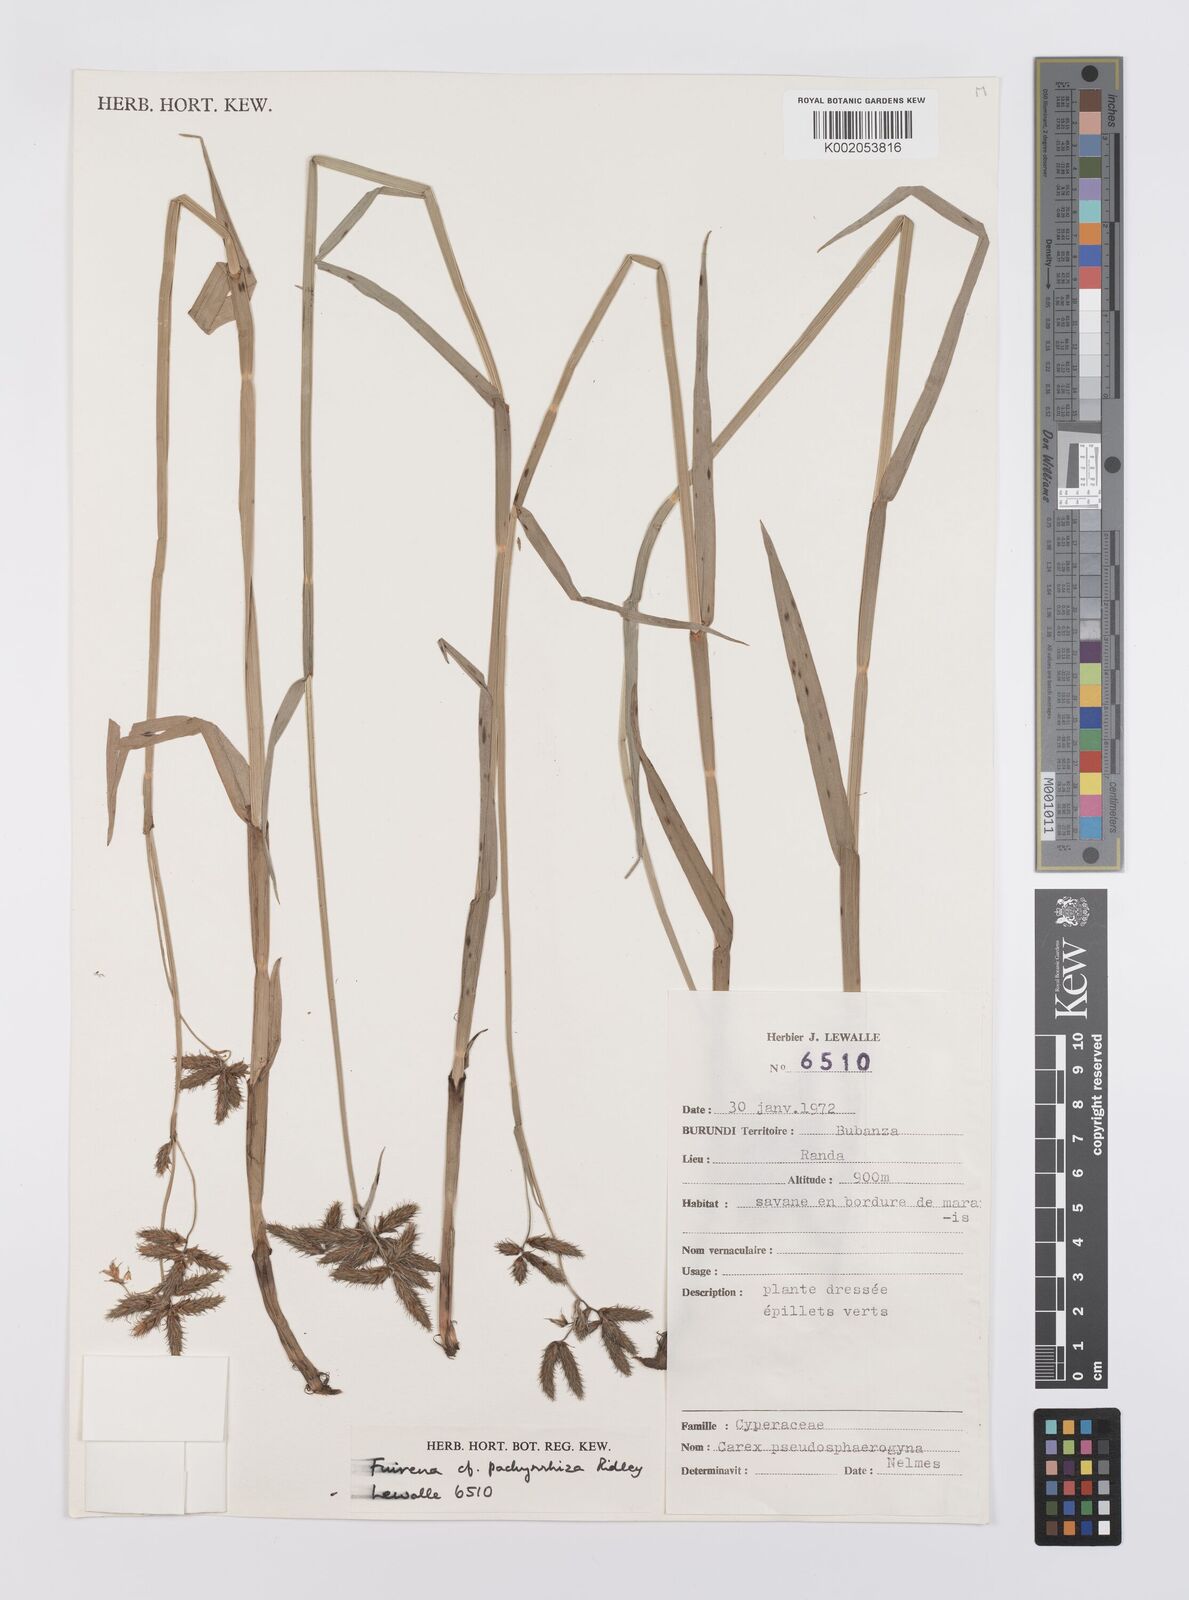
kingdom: Plantae
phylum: Tracheophyta
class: Liliopsida
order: Poales
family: Cyperaceae
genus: Fuirena
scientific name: Fuirena pachyrrhiza
